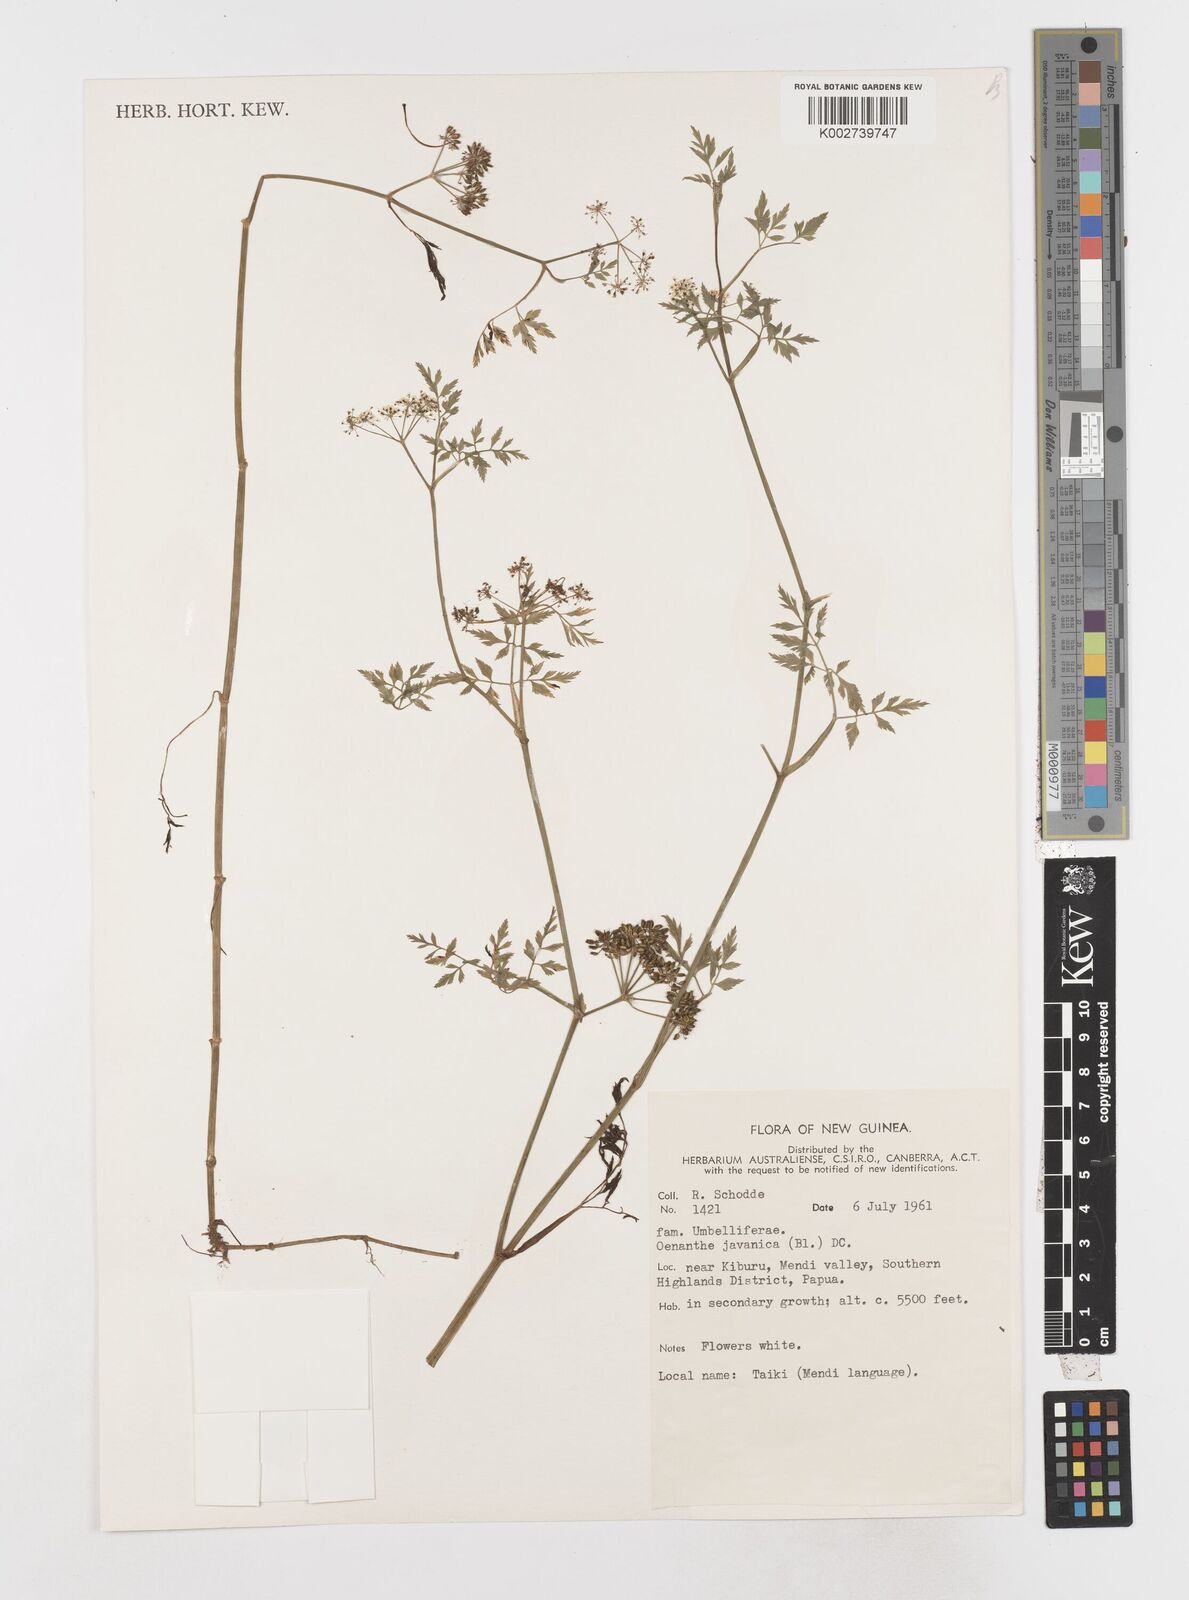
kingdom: Plantae
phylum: Tracheophyta
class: Magnoliopsida
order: Apiales
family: Apiaceae
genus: Oenanthe
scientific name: Oenanthe javanica
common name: Java water-dropwort
